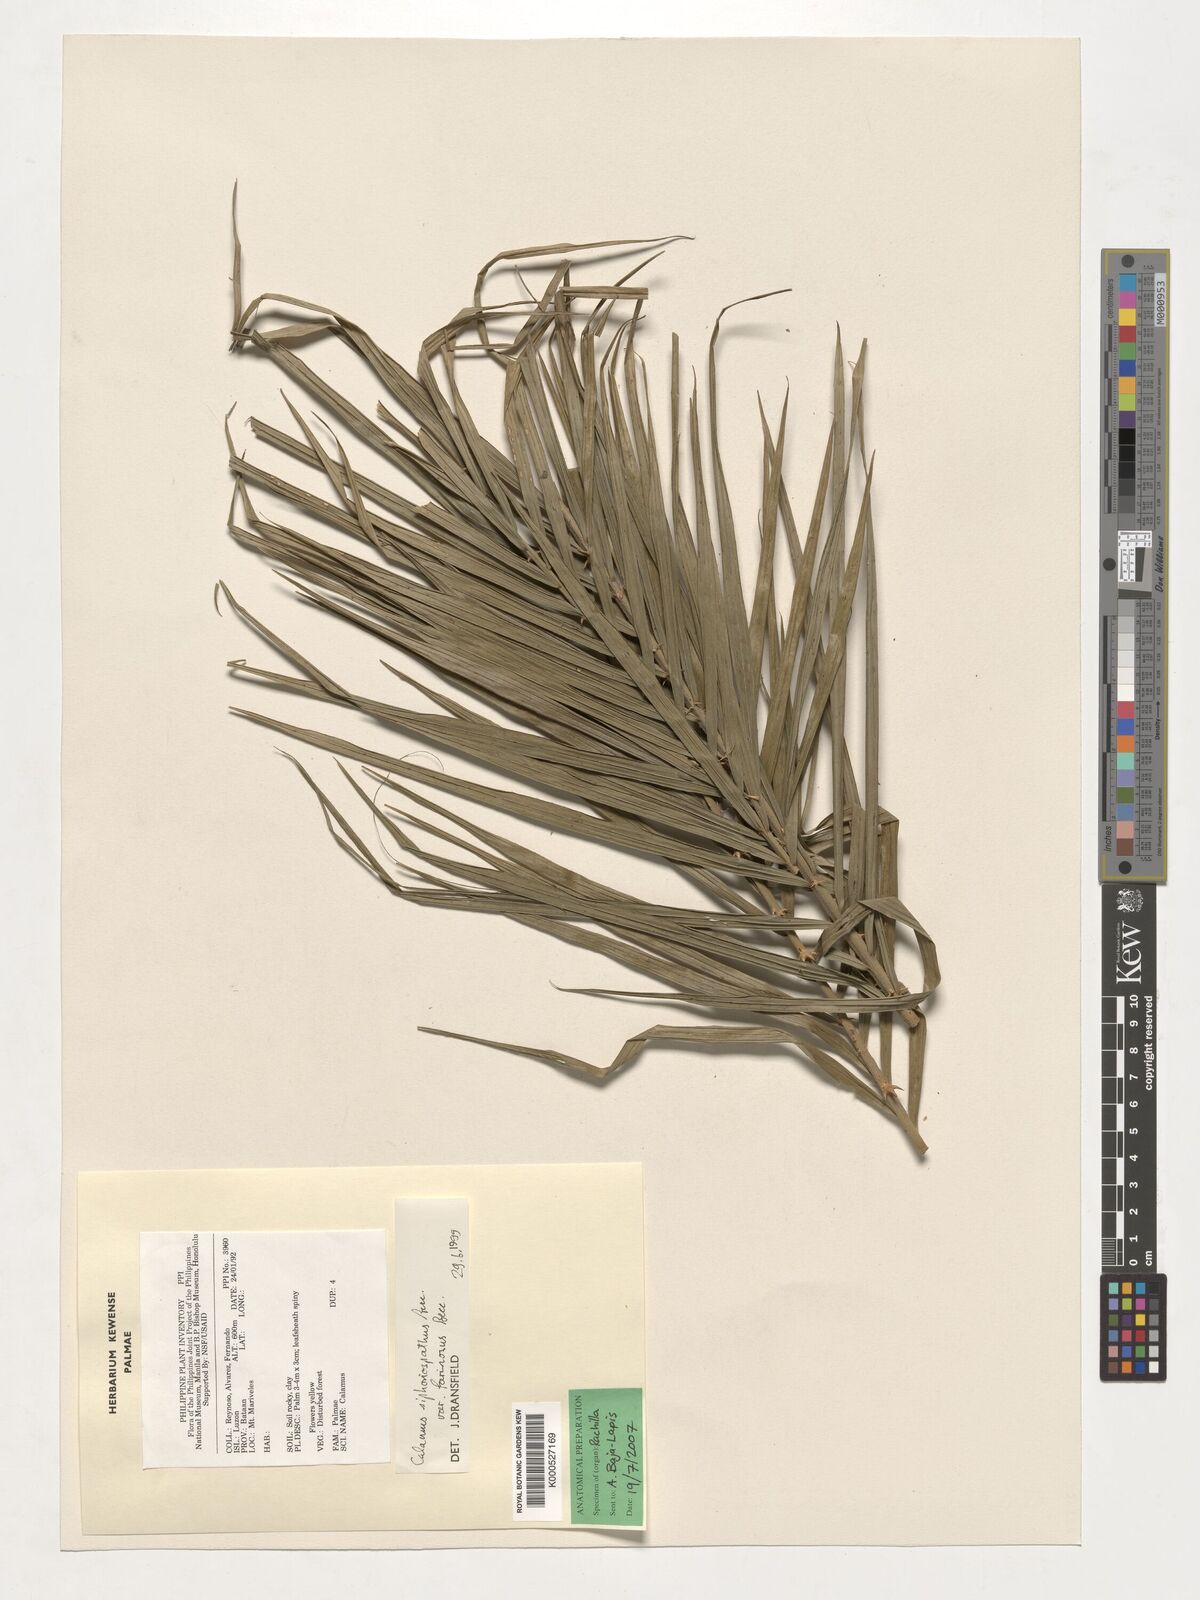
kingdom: Plantae
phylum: Tracheophyta
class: Liliopsida
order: Arecales
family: Arecaceae
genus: Calamus
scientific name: Calamus siphonospathus
